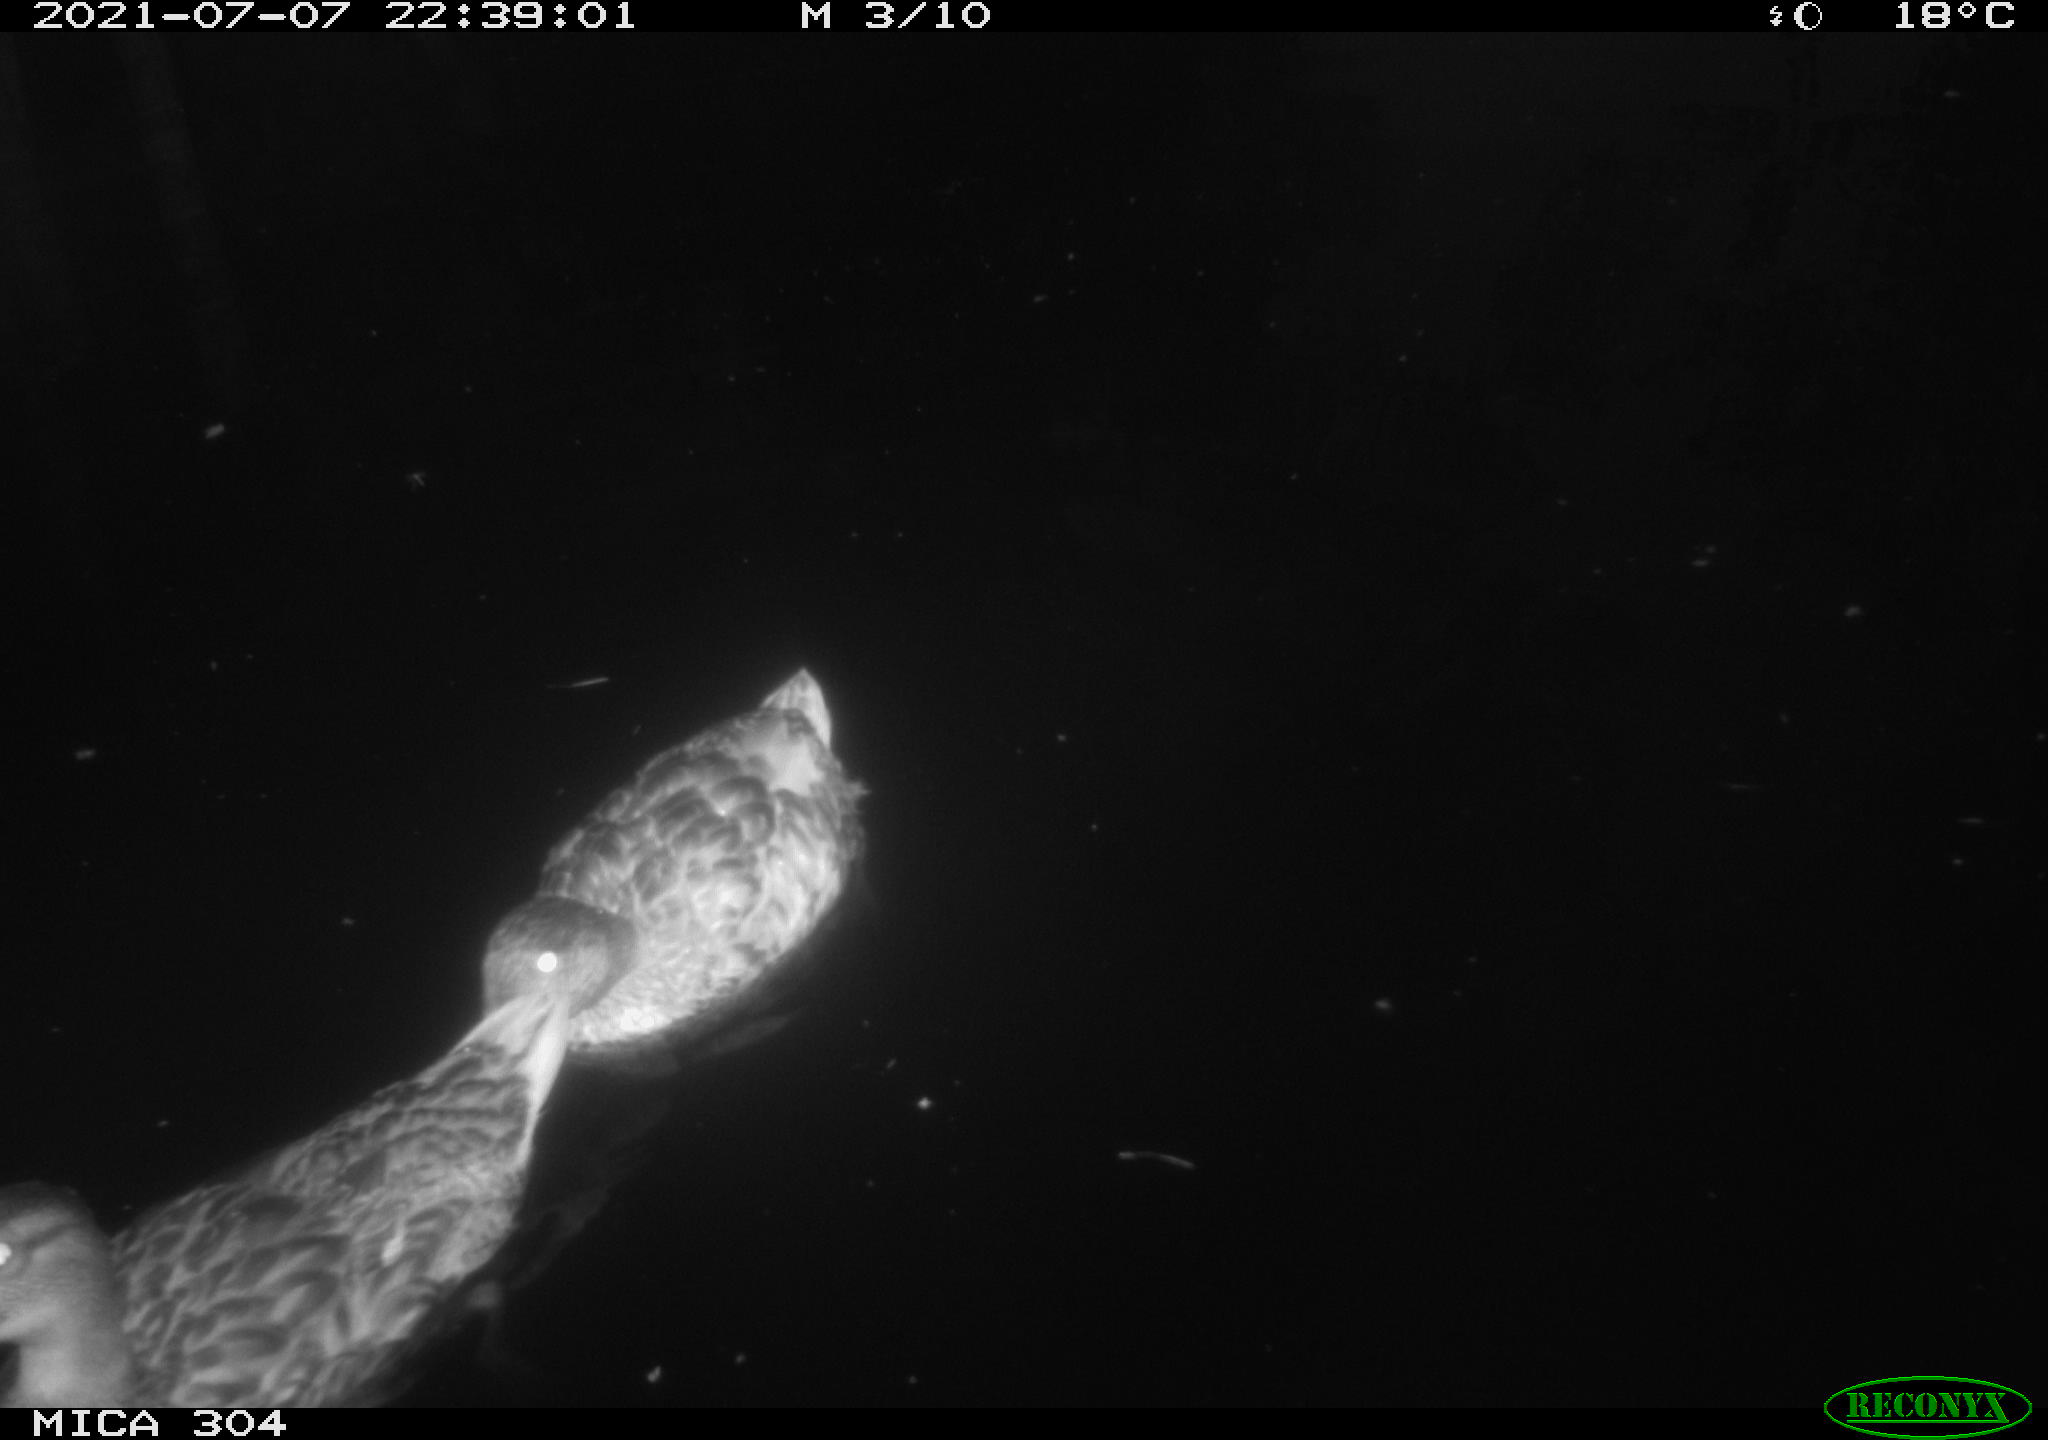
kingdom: Animalia
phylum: Chordata
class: Aves
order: Anseriformes
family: Anatidae
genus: Anas
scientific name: Anas platyrhynchos
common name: Mallard
